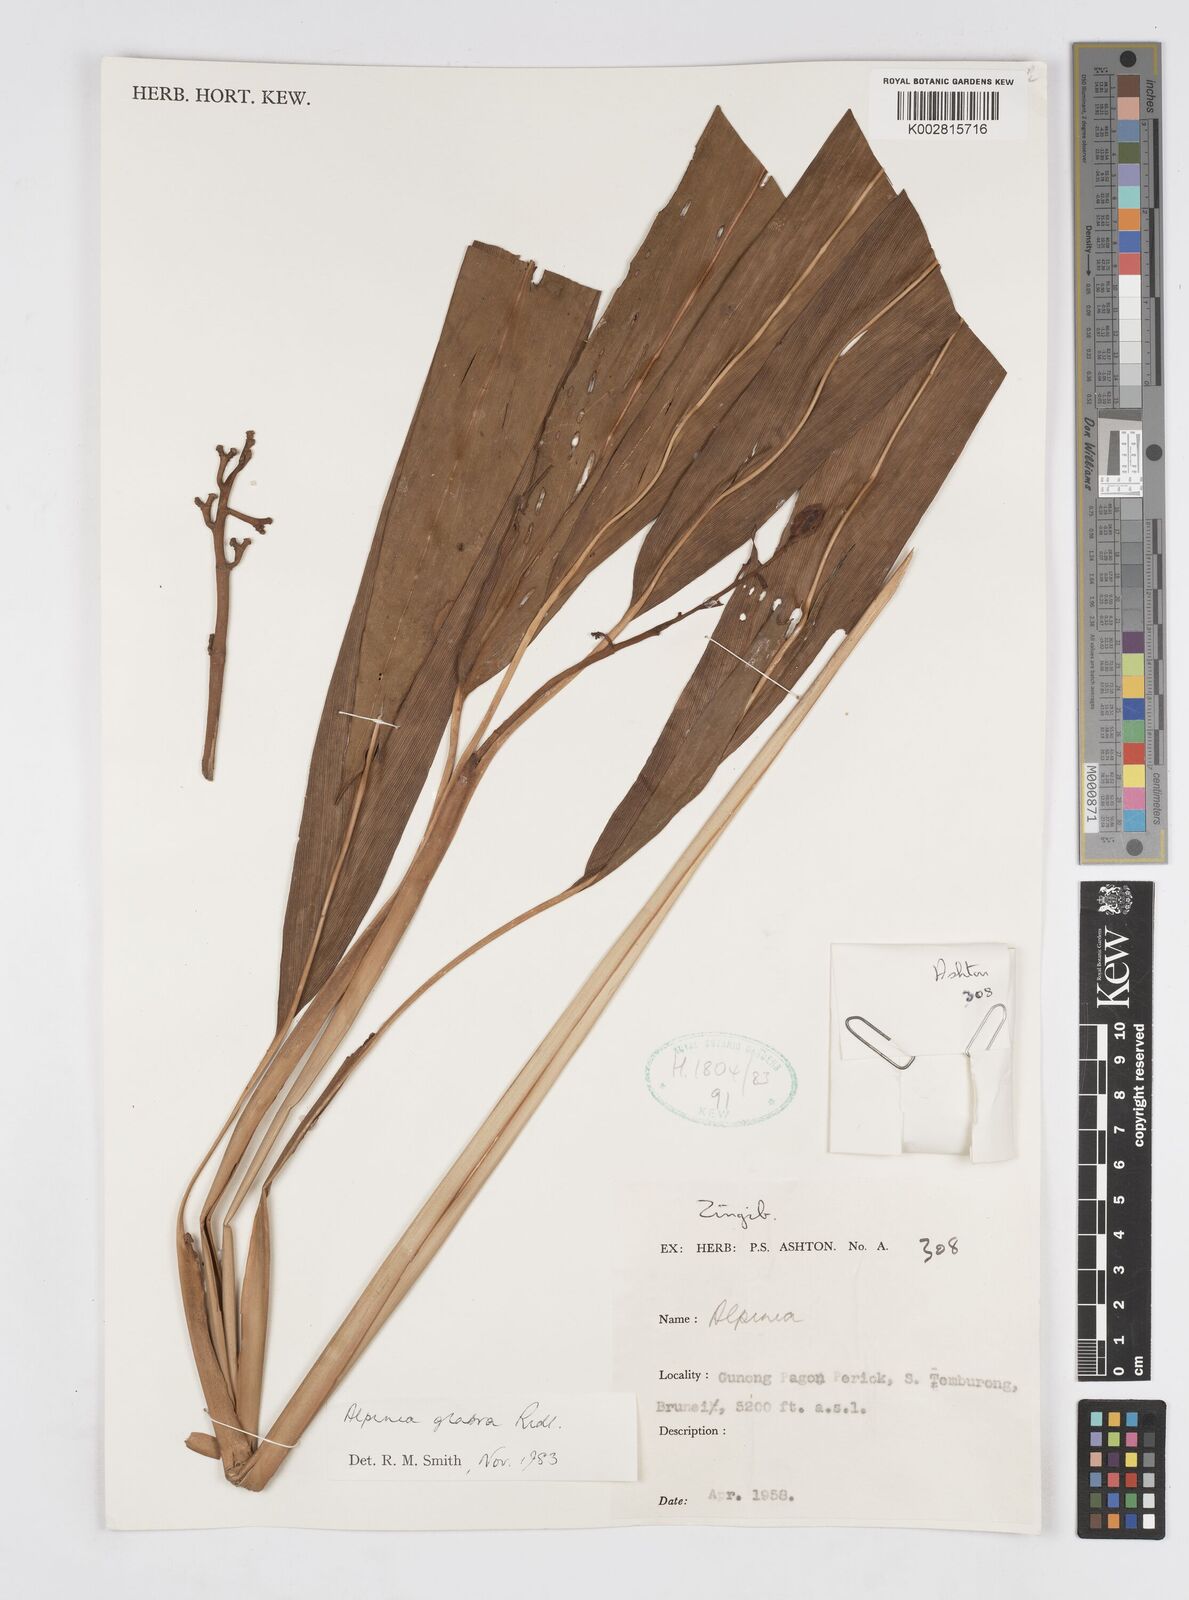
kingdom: Plantae
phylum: Tracheophyta
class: Liliopsida
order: Zingiberales
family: Zingiberaceae
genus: Alpinia
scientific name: Alpinia glabra
